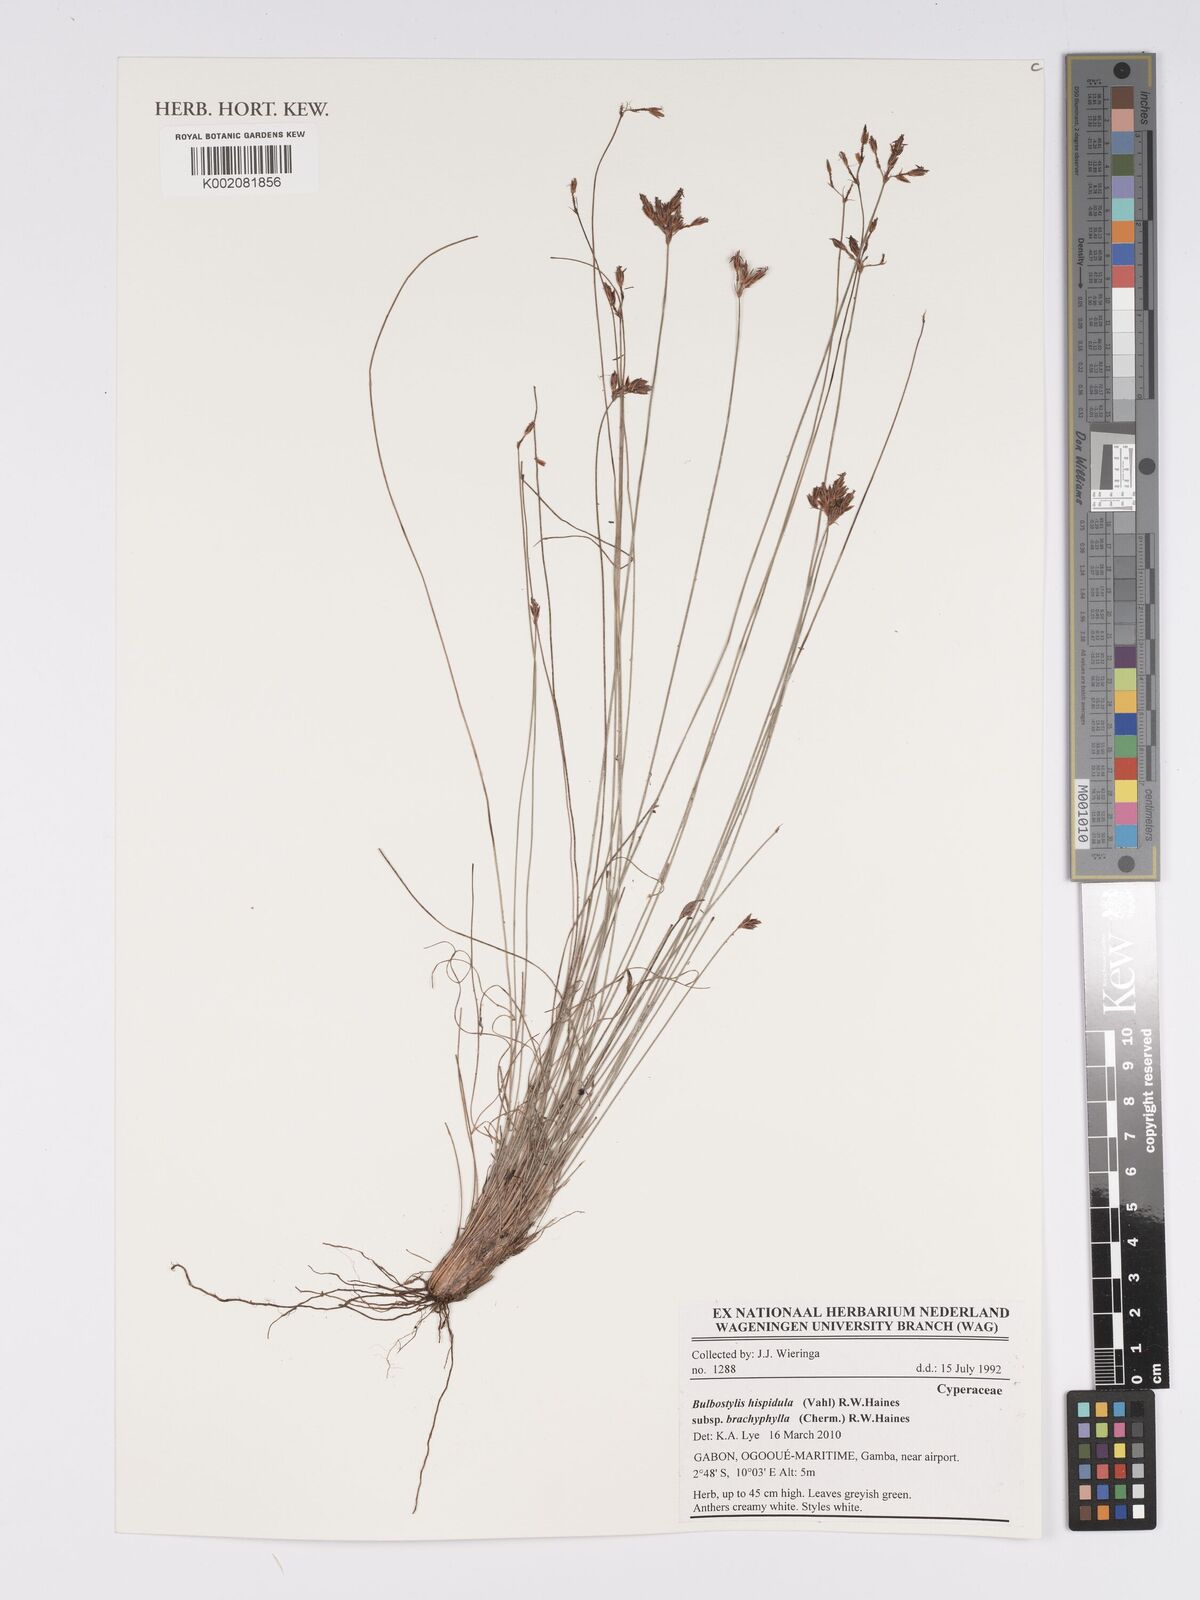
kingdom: Plantae
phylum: Tracheophyta
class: Liliopsida
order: Poales
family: Cyperaceae
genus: Bulbostylis
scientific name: Bulbostylis hispidula
